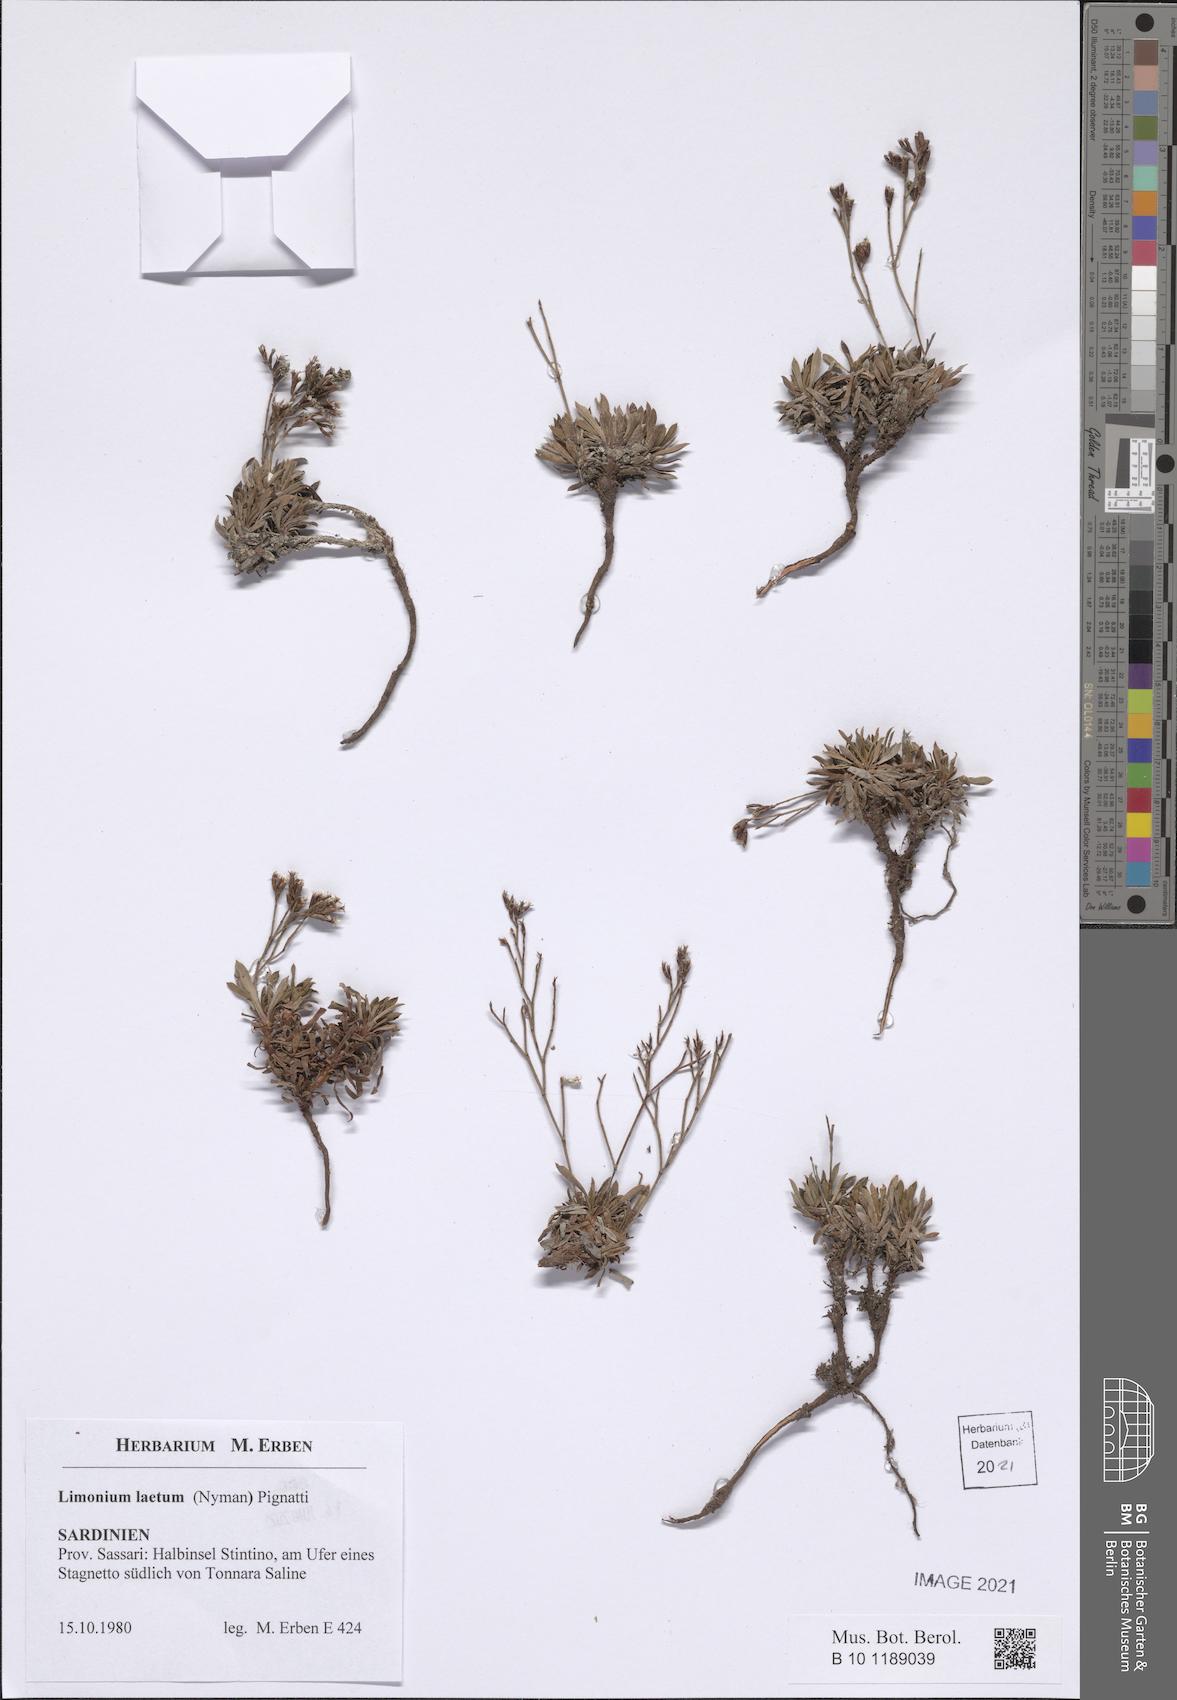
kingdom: Plantae
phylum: Tracheophyta
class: Magnoliopsida
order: Caryophyllales
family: Plumbaginaceae
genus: Limonium
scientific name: Limonium laetum
